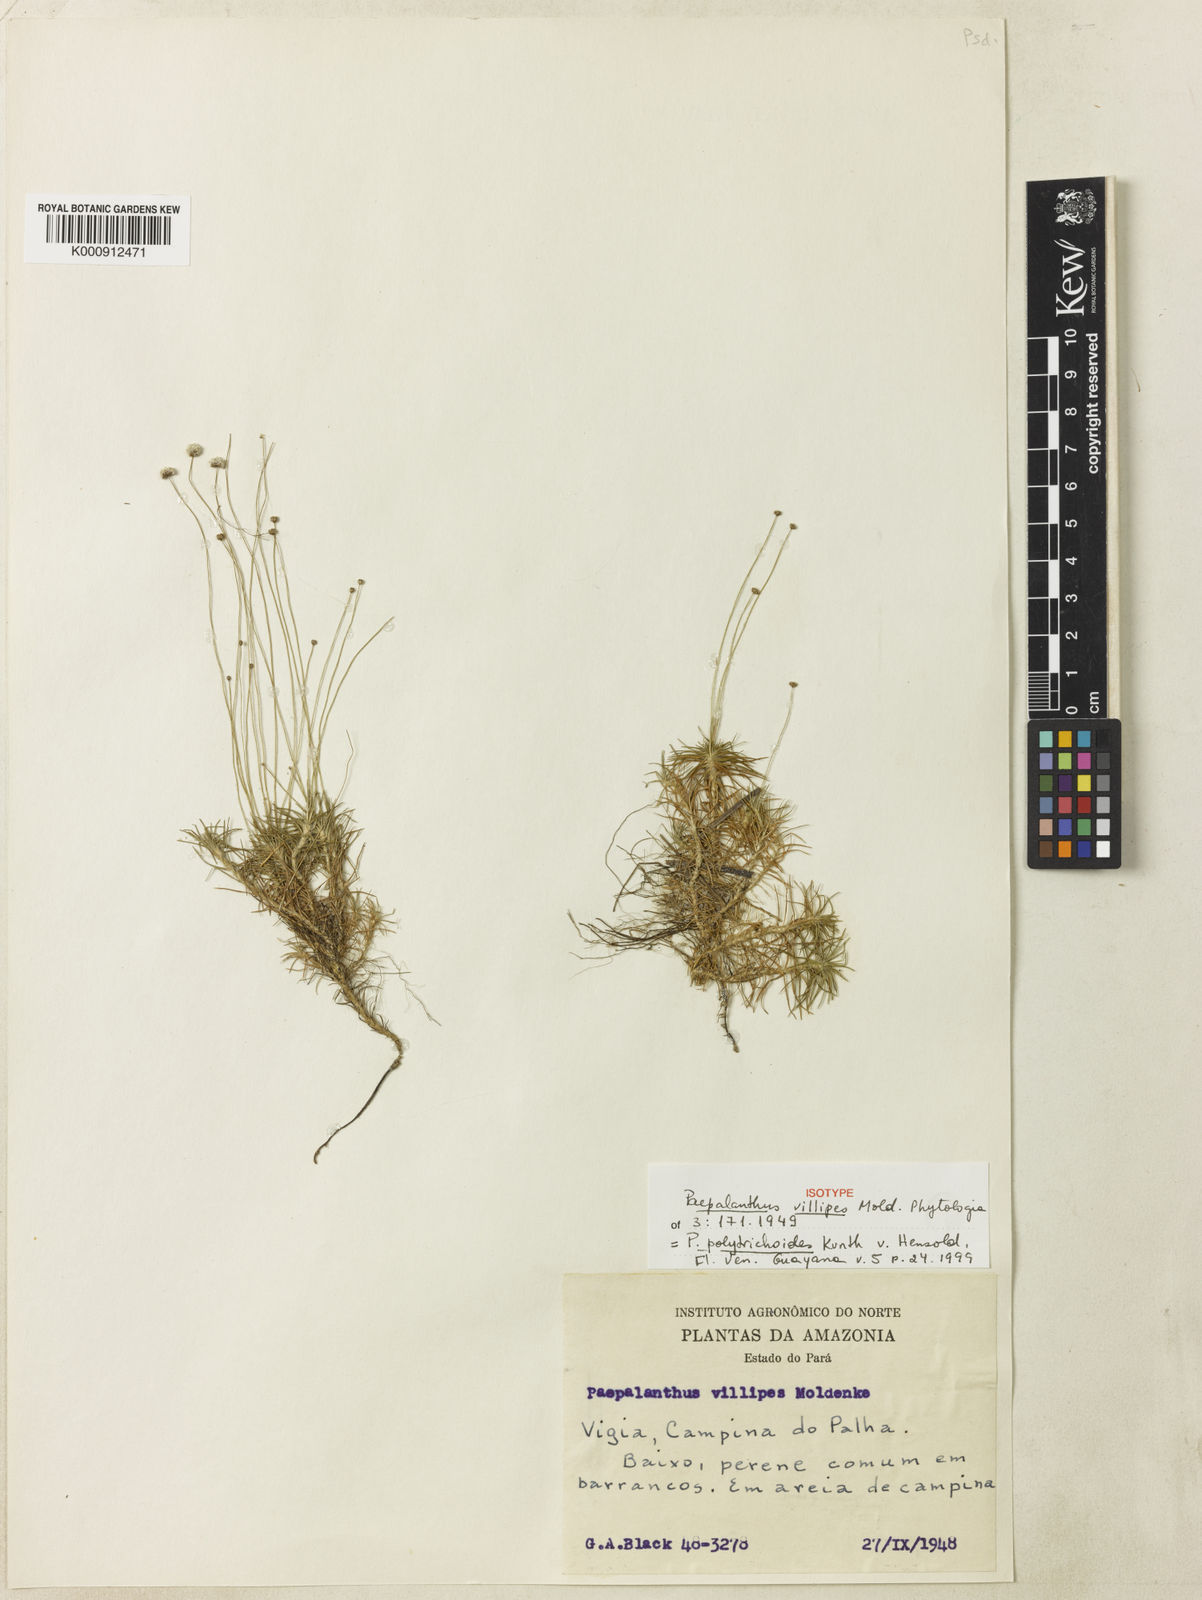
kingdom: Plantae
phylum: Tracheophyta
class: Liliopsida
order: Poales
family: Eriocaulaceae
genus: Paepalanthus
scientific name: Paepalanthus polytrichoides
